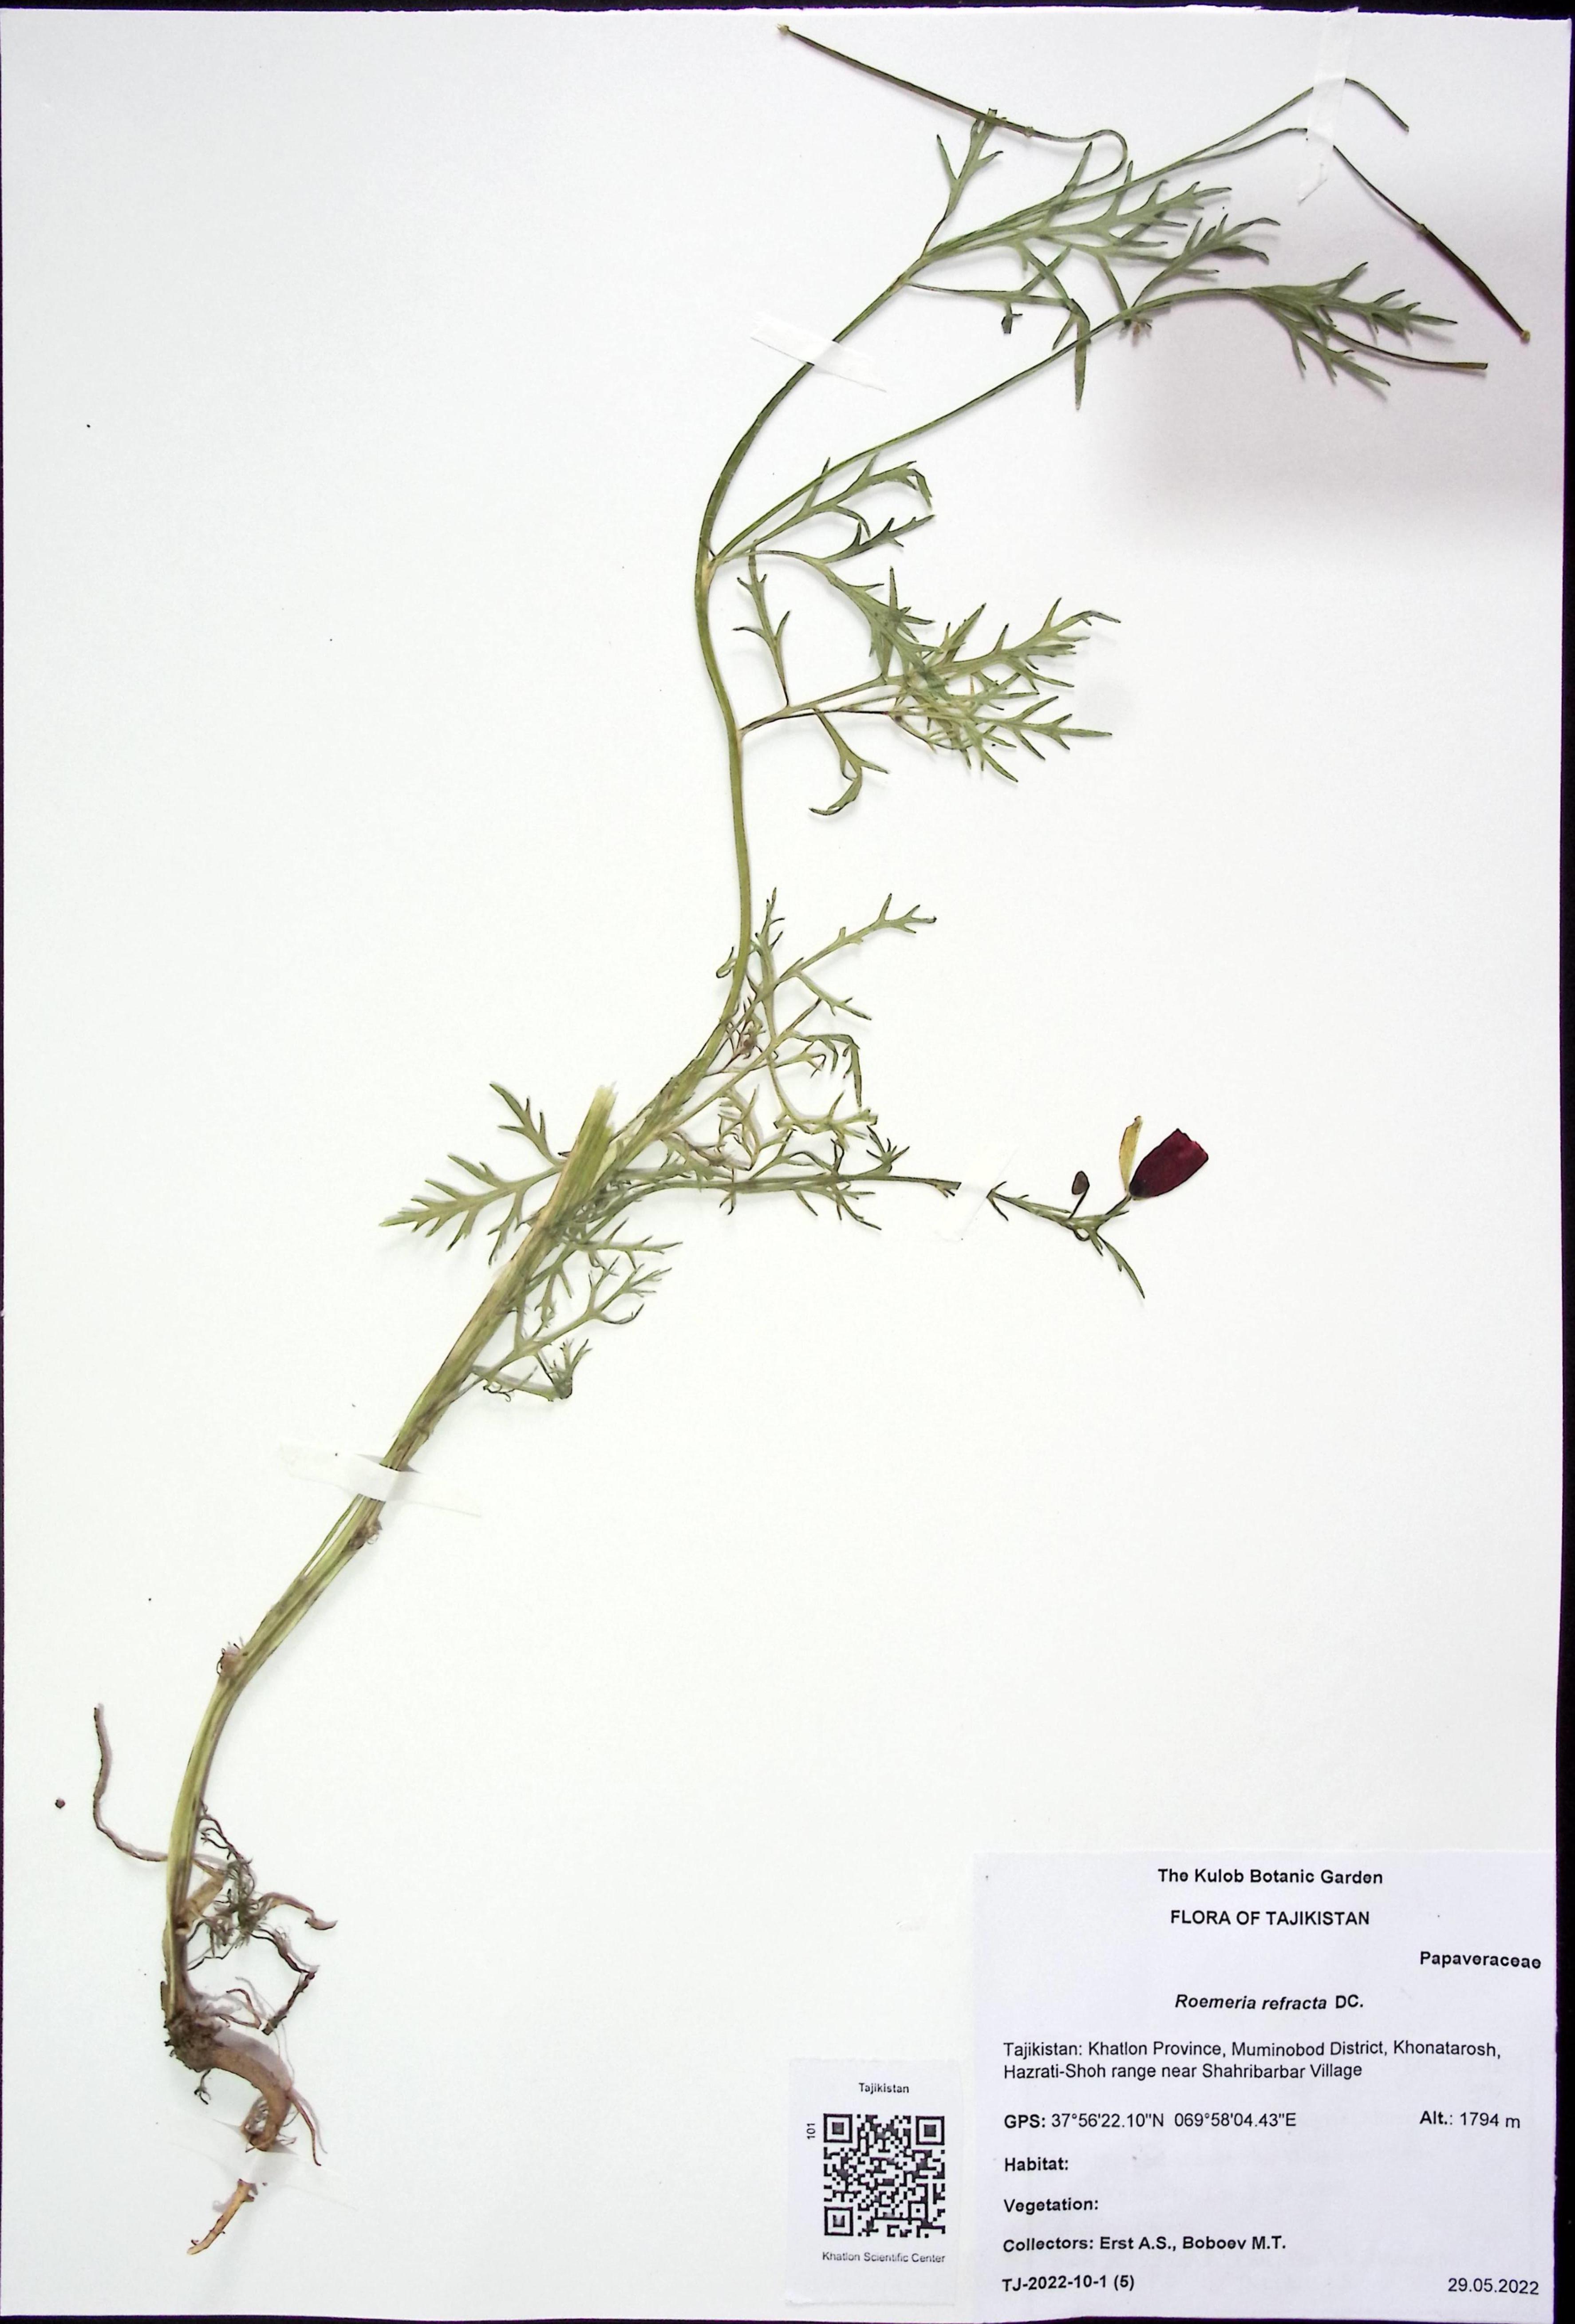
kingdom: Plantae
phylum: Tracheophyta
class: Magnoliopsida
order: Ranunculales
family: Papaveraceae
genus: Roemeria
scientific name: Roemeria refracta
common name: Spotted asian poppy
